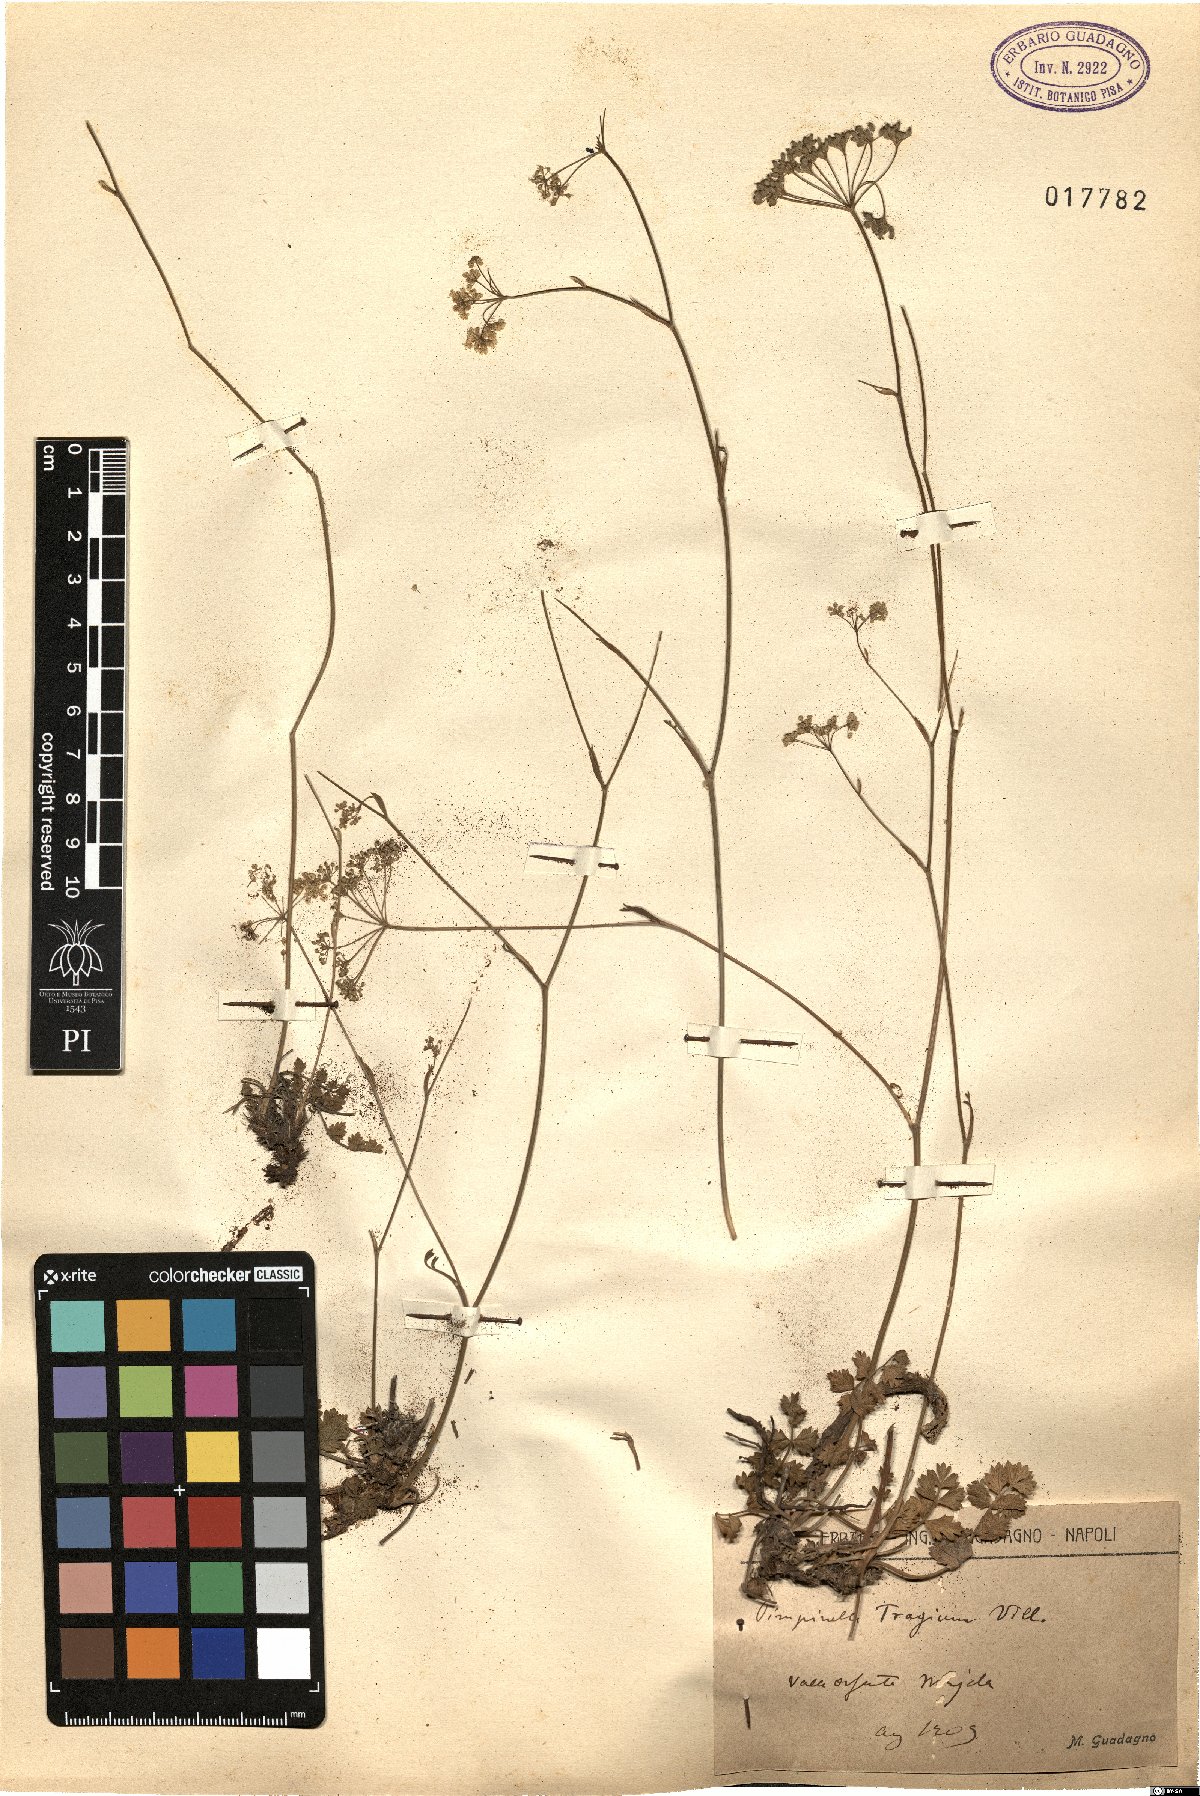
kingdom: Plantae
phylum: Tracheophyta
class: Magnoliopsida
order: Apiales
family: Apiaceae
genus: Pimpinella
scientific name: Pimpinella tragium
